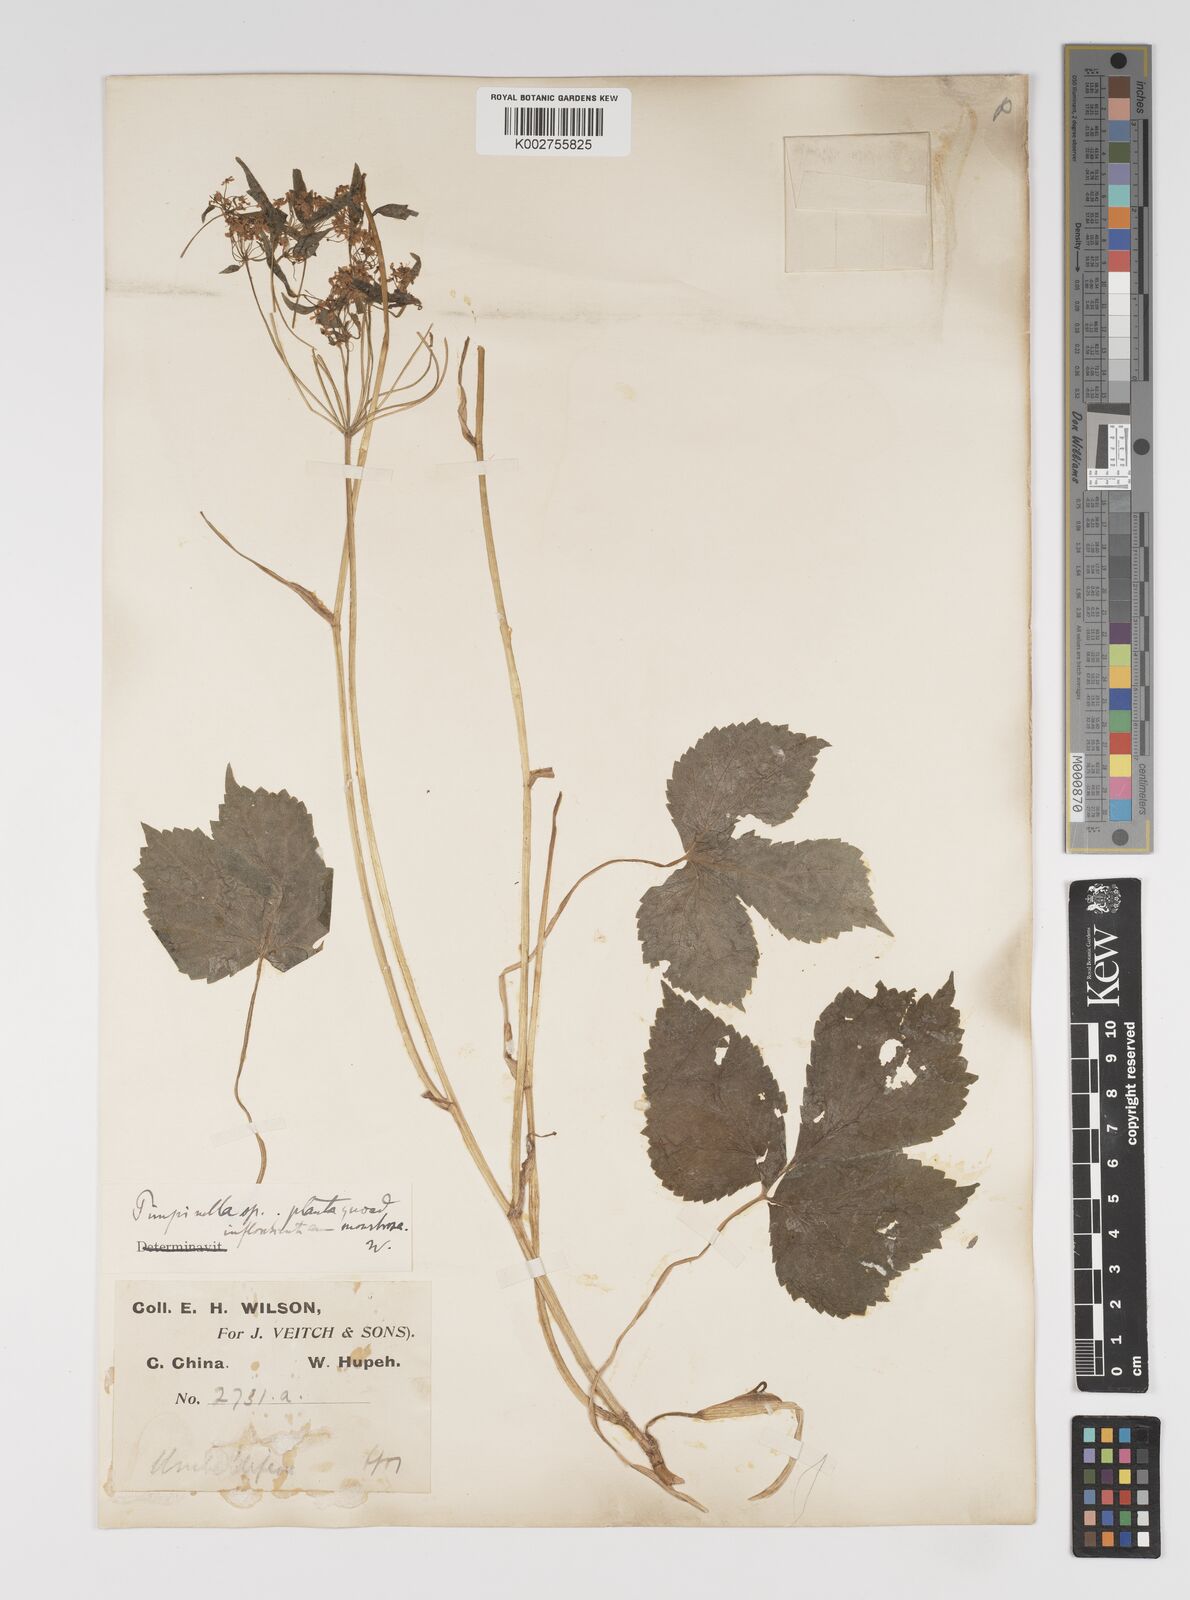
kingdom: Plantae
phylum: Tracheophyta
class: Magnoliopsida
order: Apiales
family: Apiaceae
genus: Pimpinella
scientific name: Pimpinella
